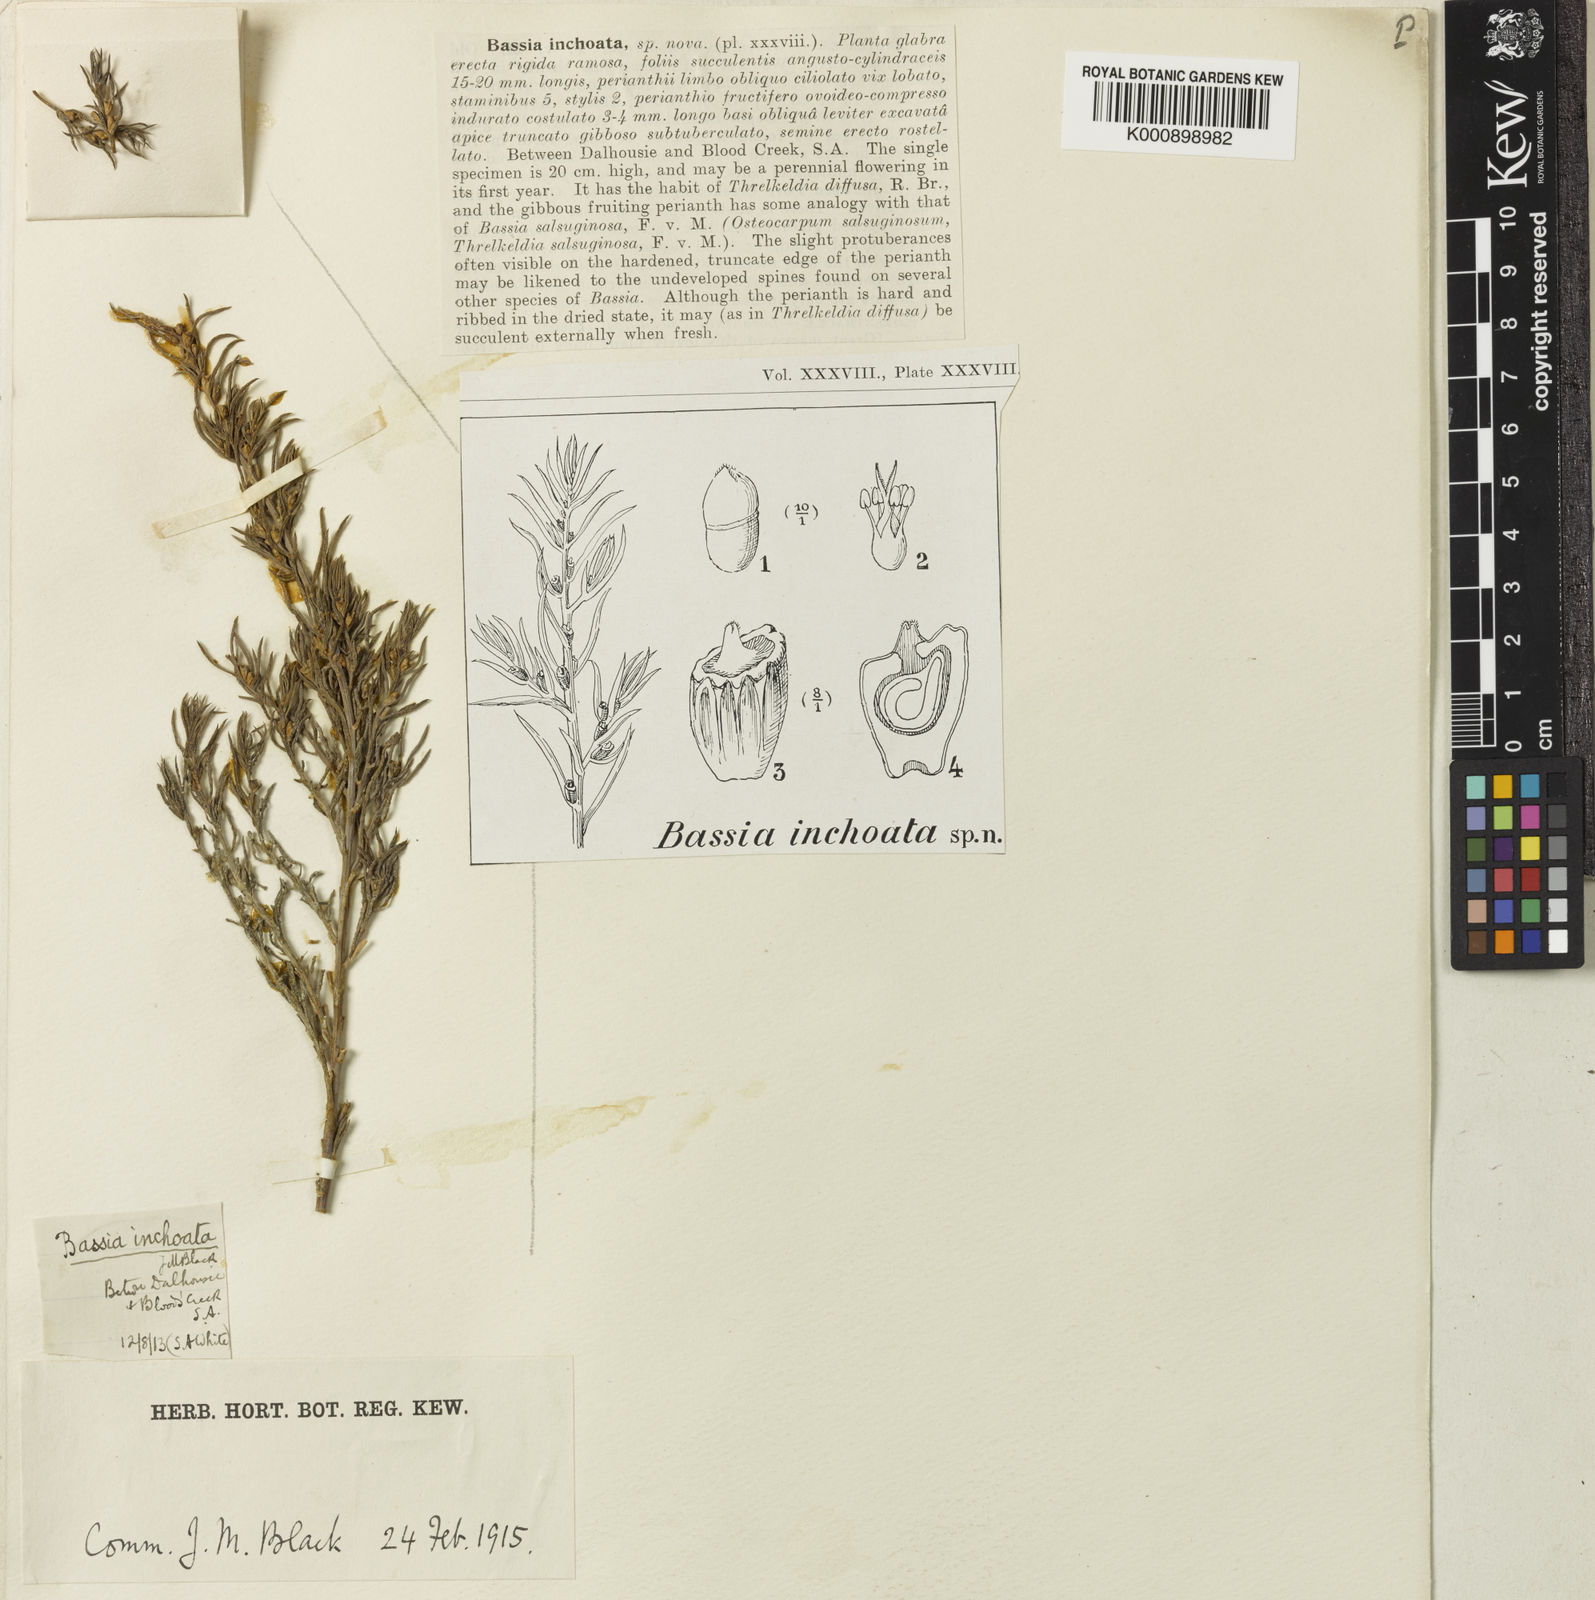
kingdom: Plantae
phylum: Tracheophyta
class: Magnoliopsida
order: Caryophyllales
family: Amaranthaceae
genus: Threlkeldia
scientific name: Threlkeldia inchoata
